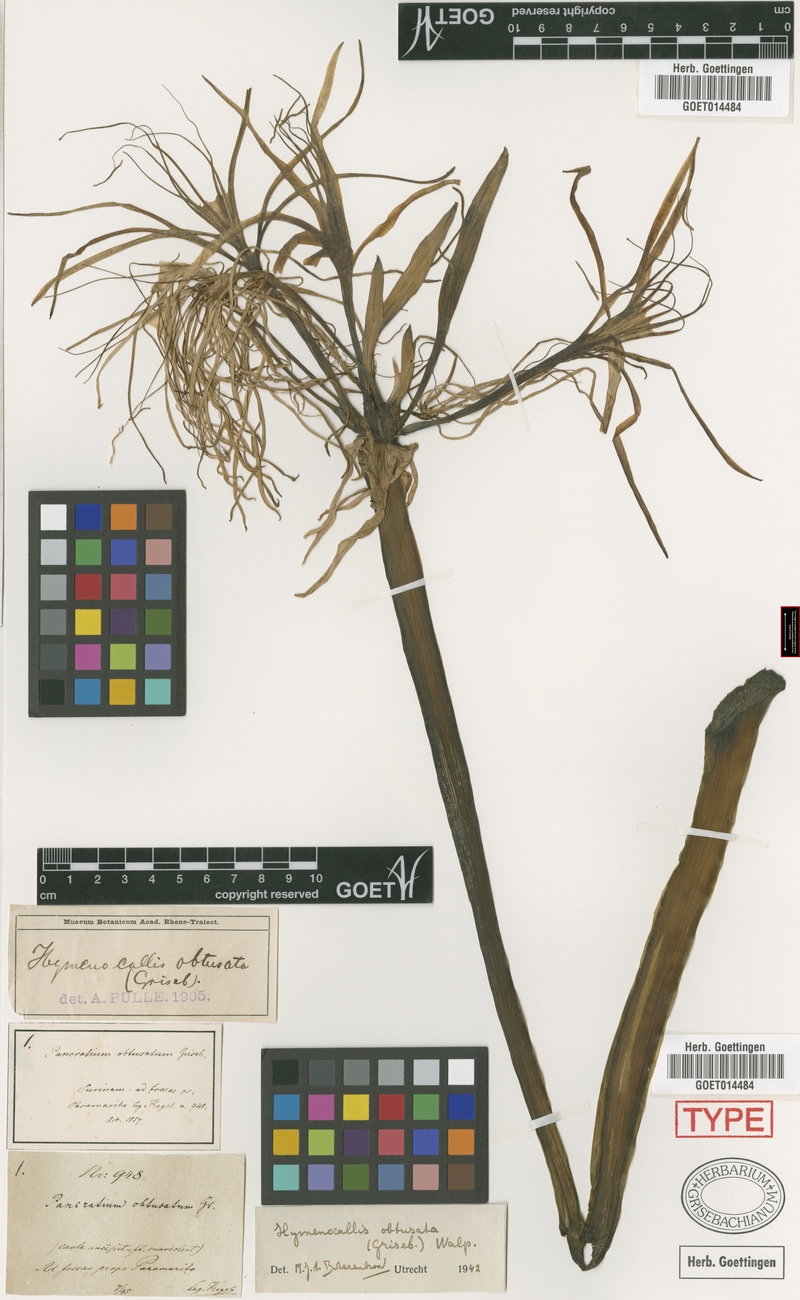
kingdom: Plantae
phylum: Tracheophyta
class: Liliopsida
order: Asparagales
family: Amaryllidaceae
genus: Hymenocallis
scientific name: Hymenocallis caribaea
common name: White-lily
